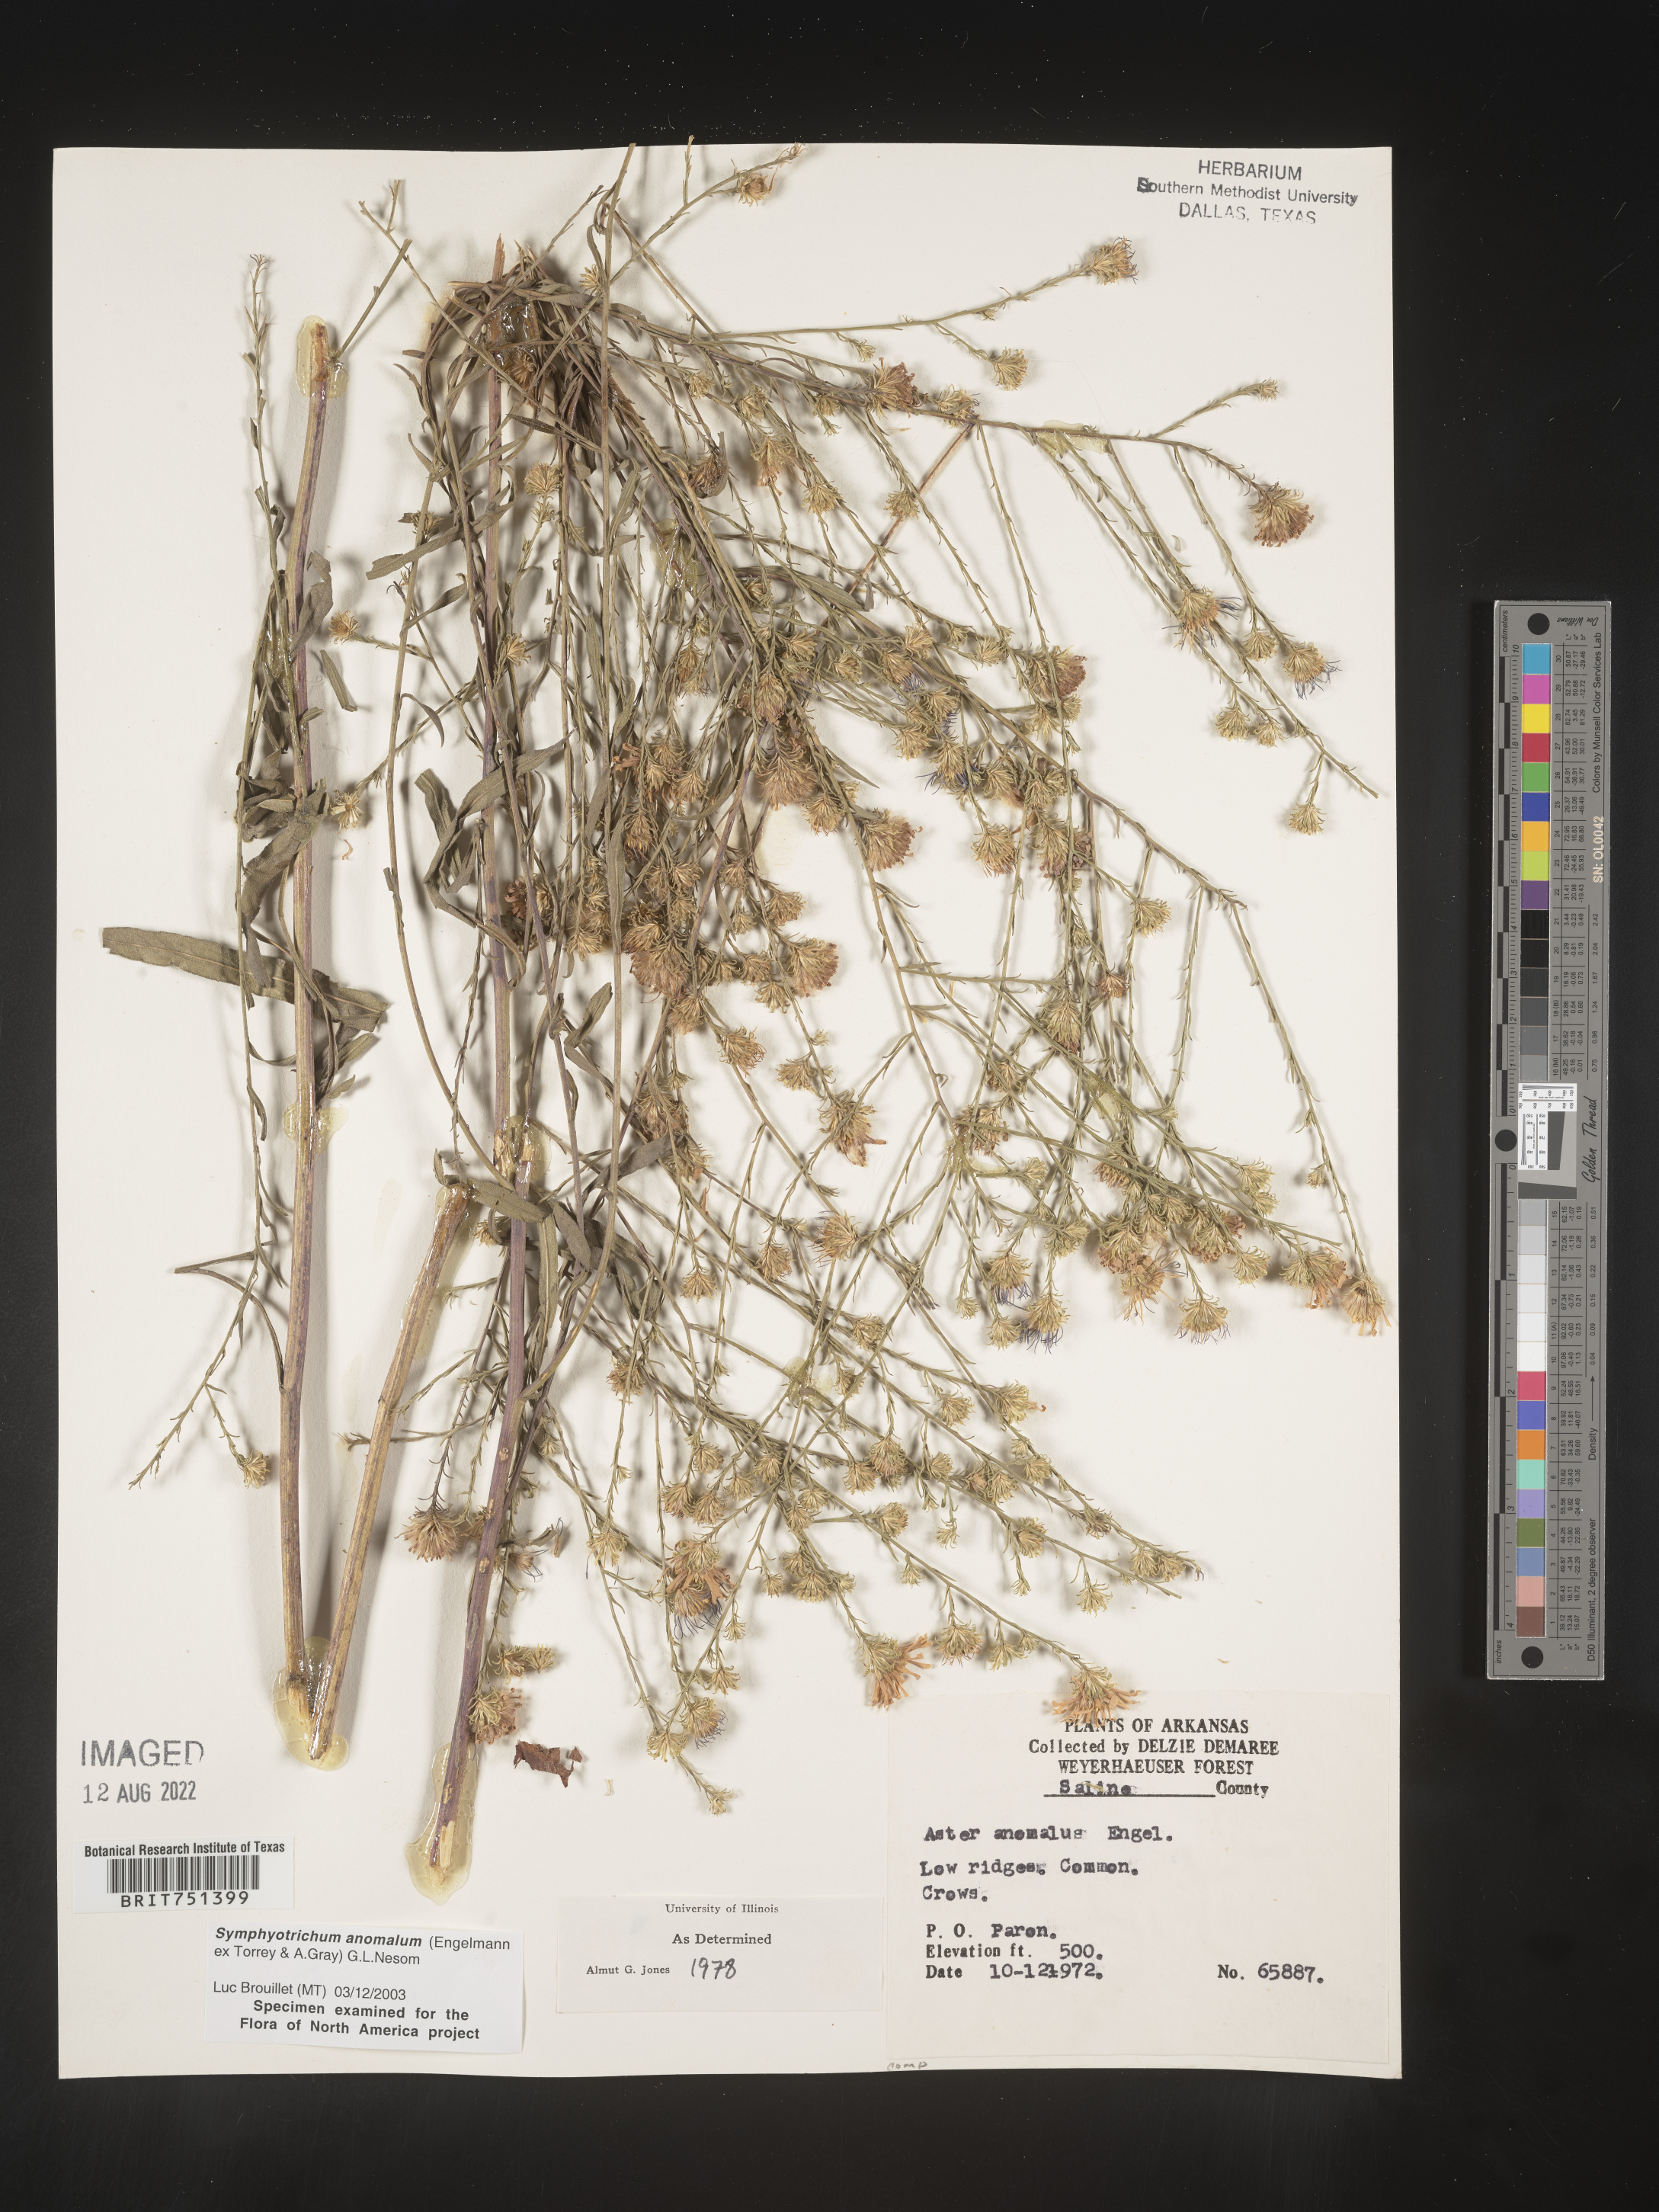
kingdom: Plantae
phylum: Tracheophyta
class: Magnoliopsida
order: Asterales
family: Asteraceae
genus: Symphyotrichum
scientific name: Symphyotrichum anomalum
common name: Many-ray aster
